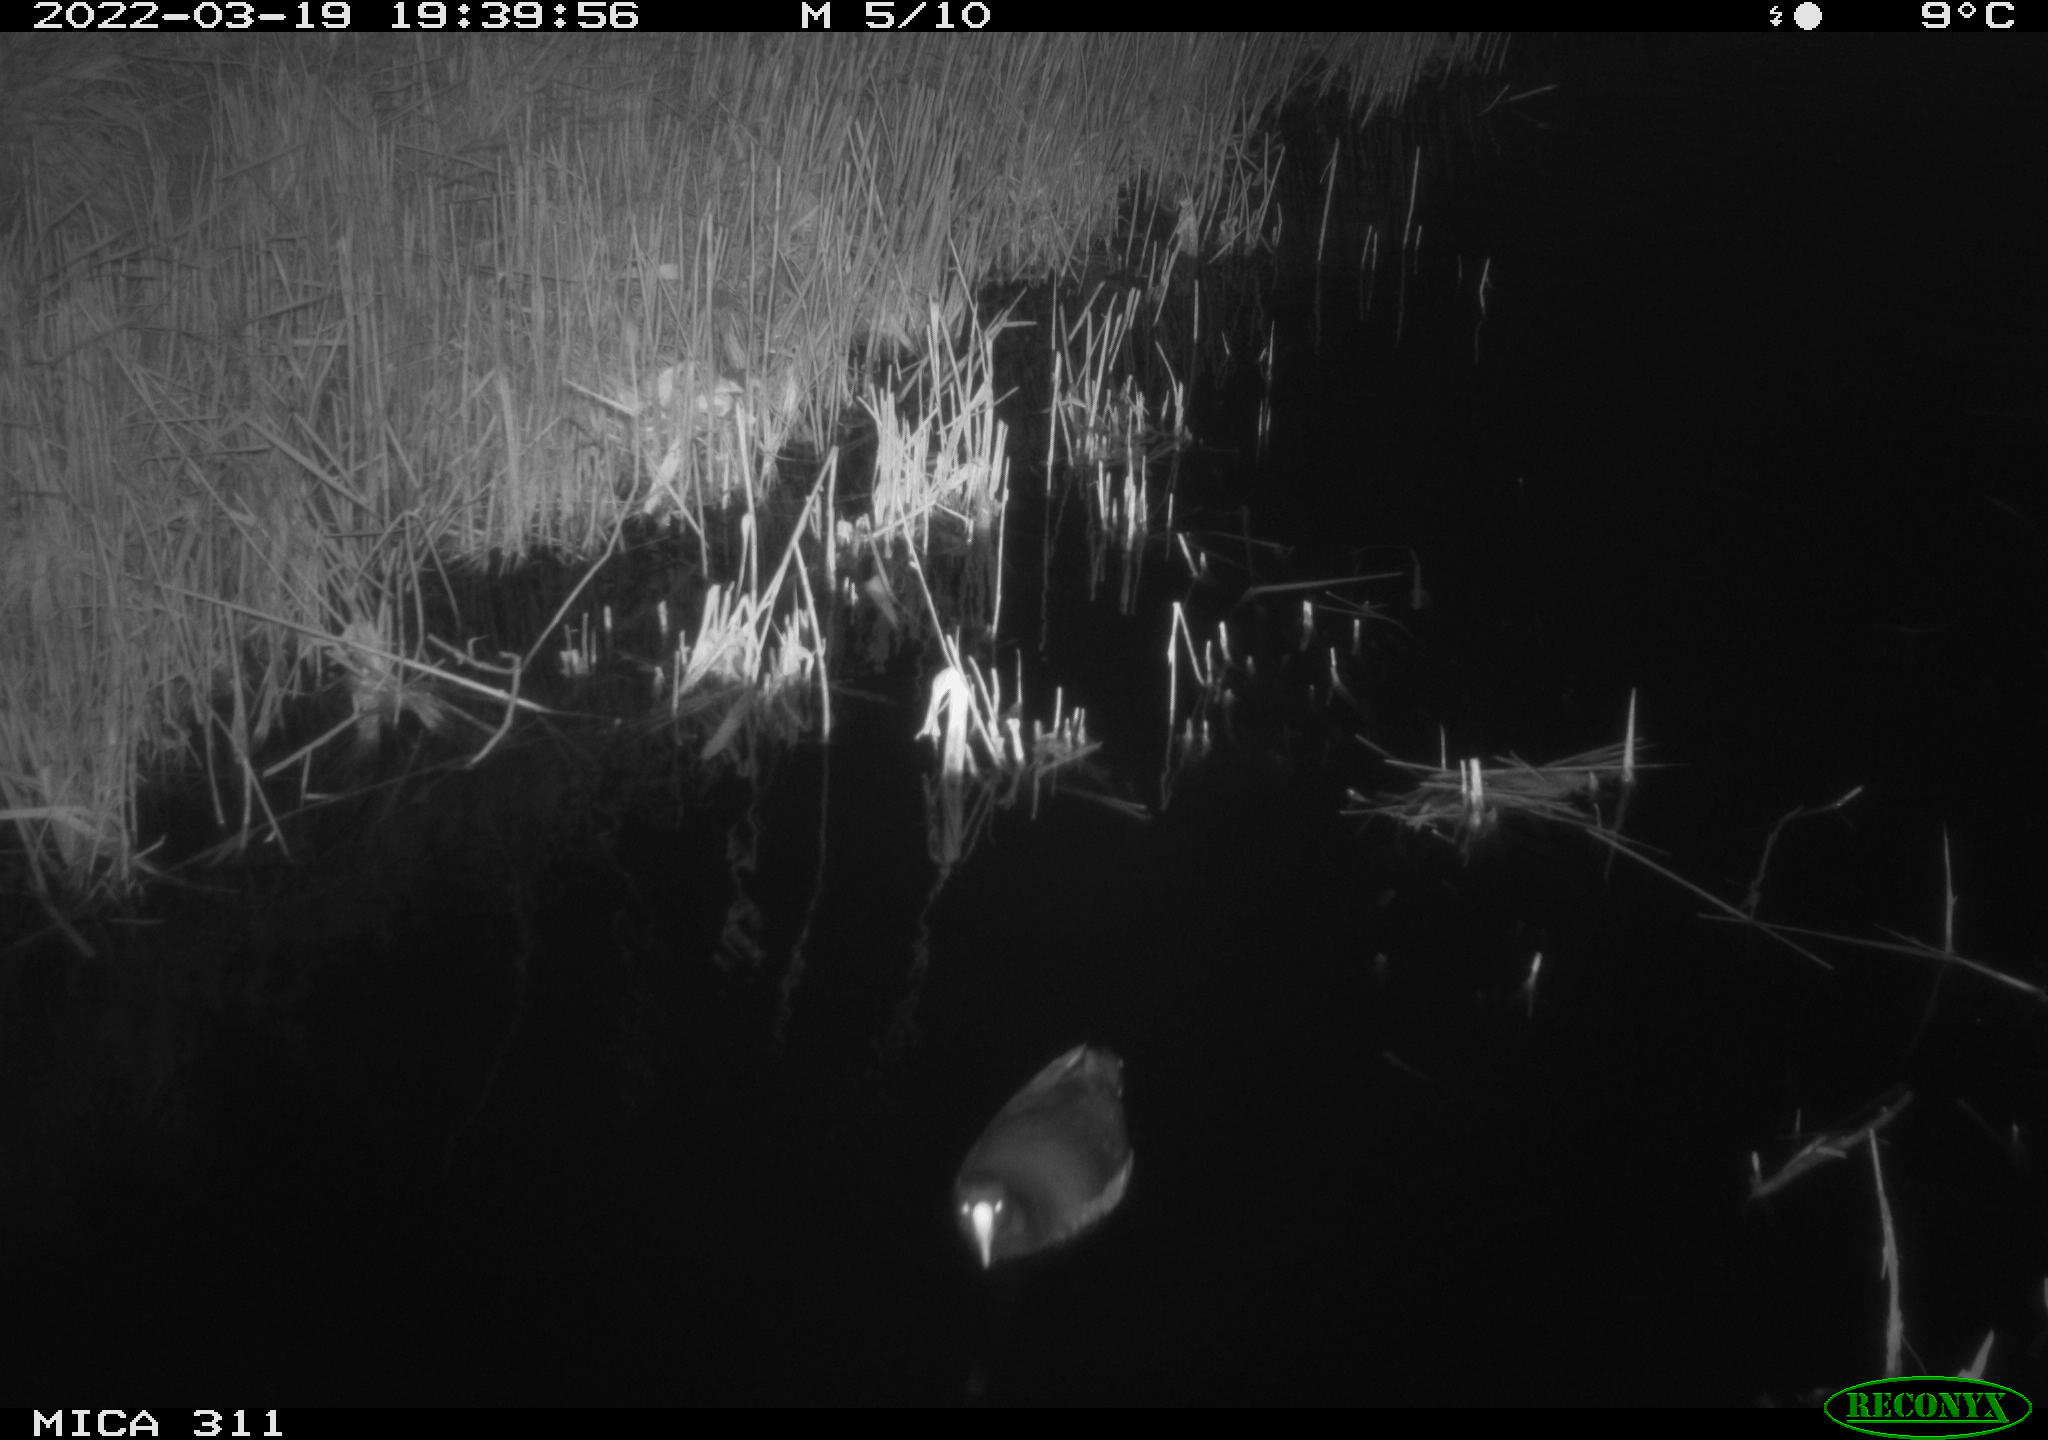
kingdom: Animalia
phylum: Chordata
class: Aves
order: Gruiformes
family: Rallidae
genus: Gallinula
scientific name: Gallinula chloropus
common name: Common moorhen
